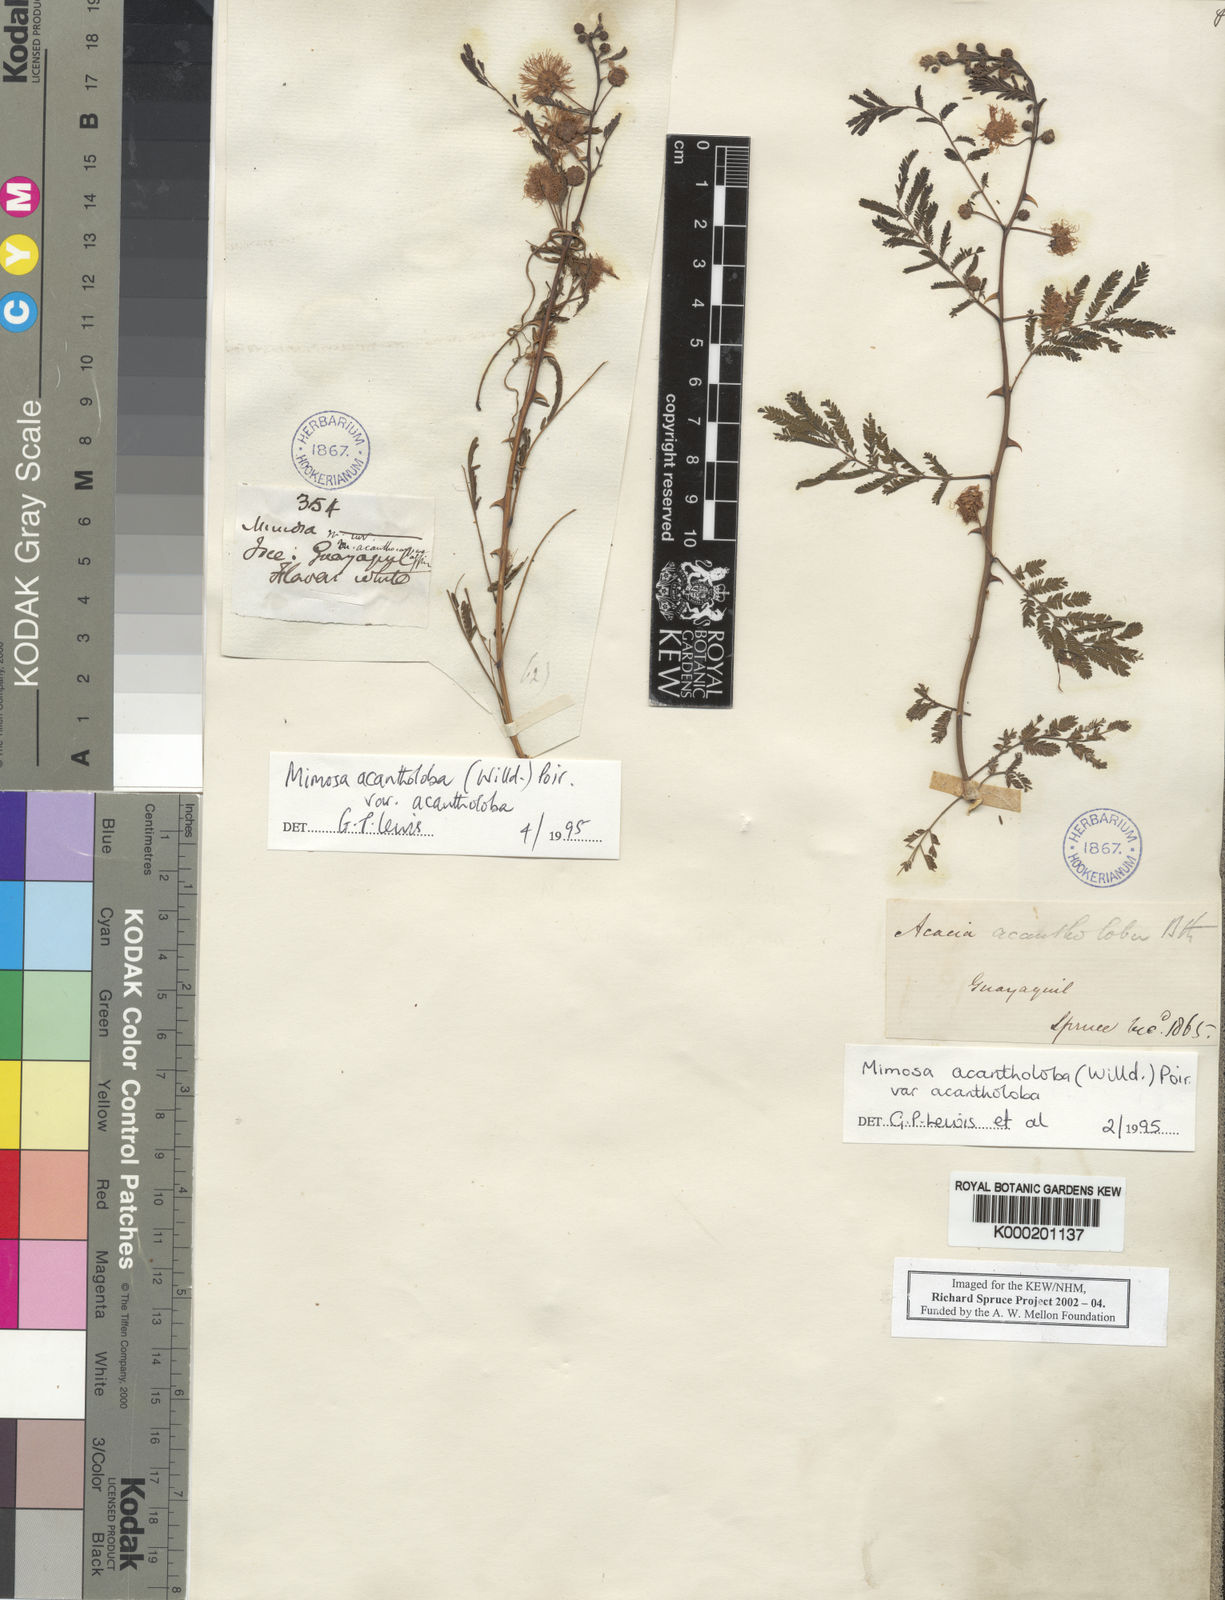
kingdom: Plantae
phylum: Tracheophyta
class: Magnoliopsida
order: Fabales
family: Fabaceae
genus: Mimosa
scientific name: Mimosa acantholoba
